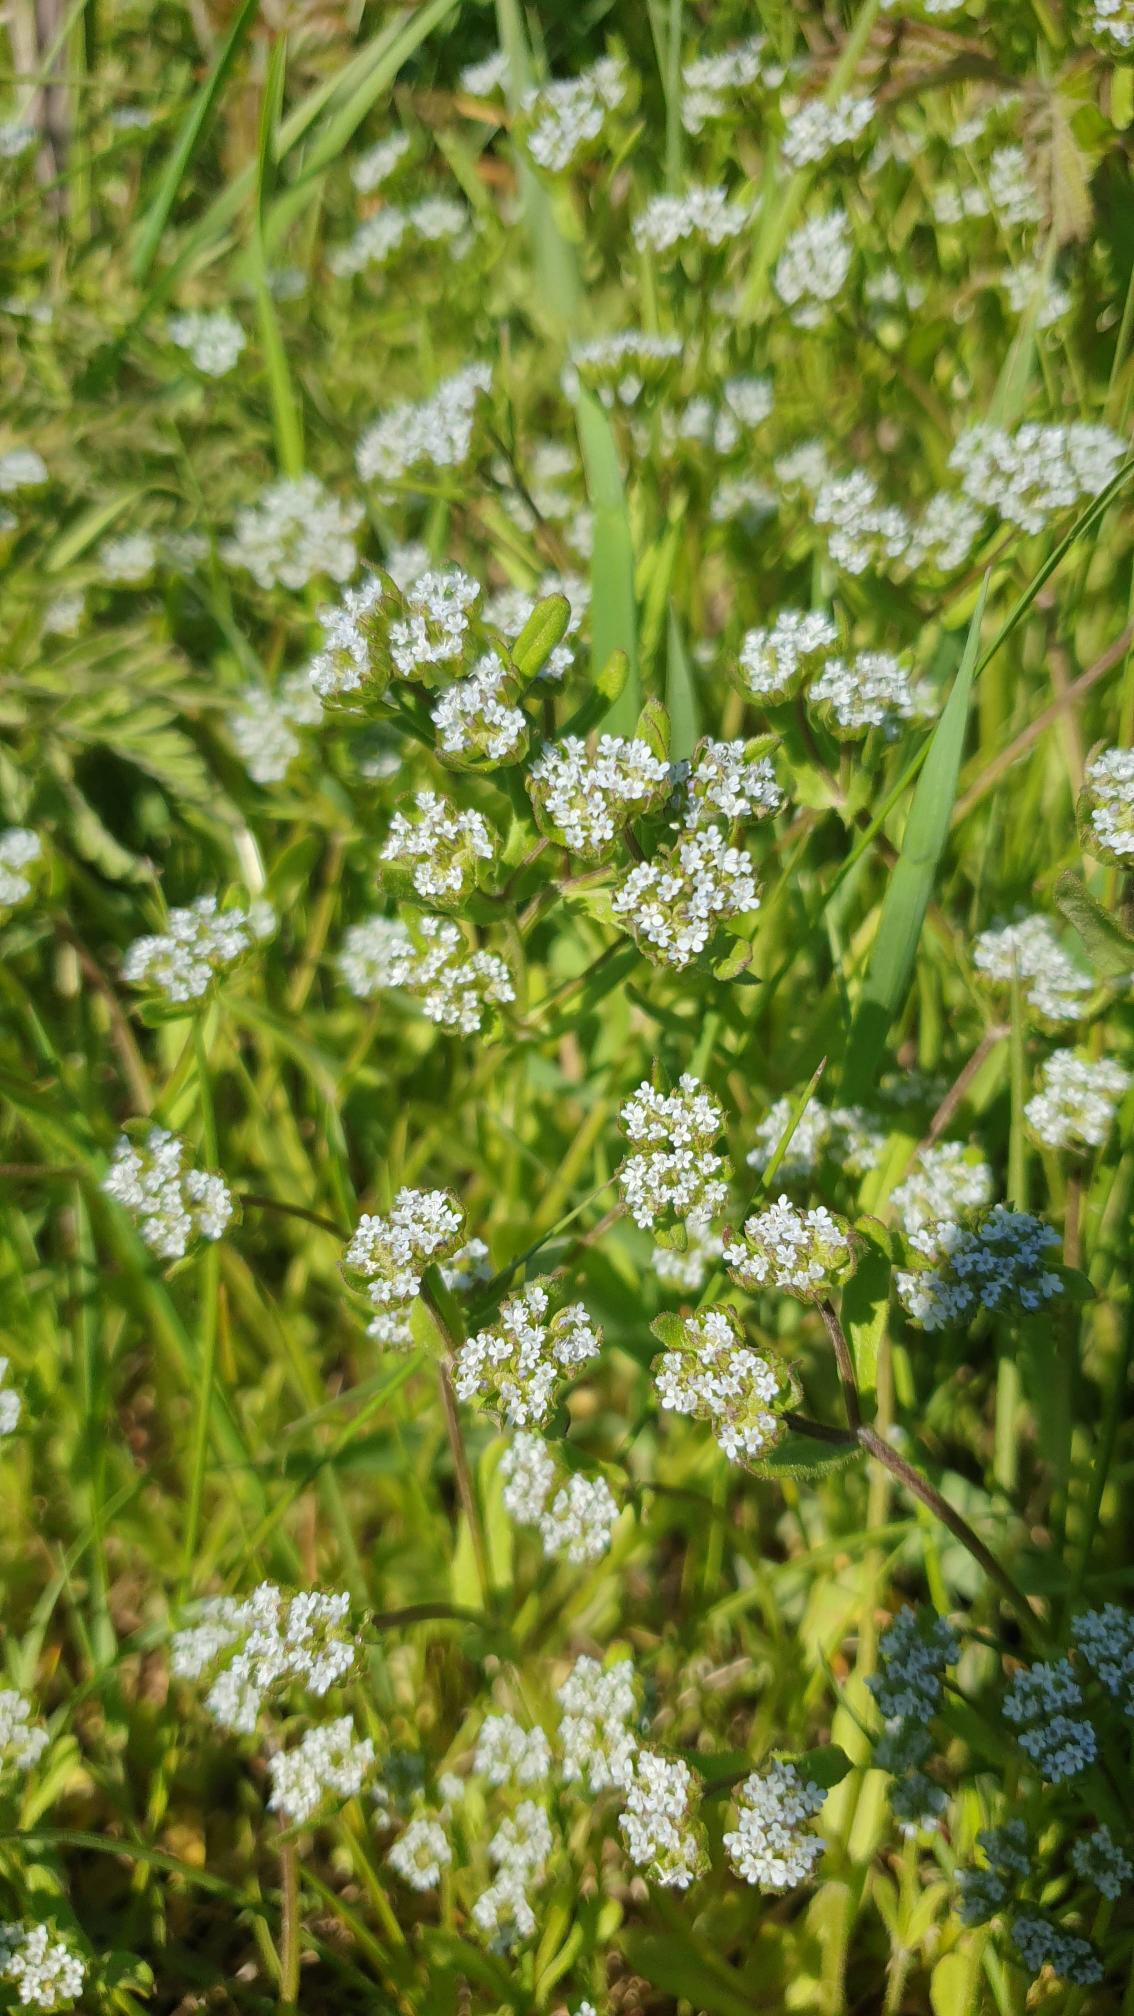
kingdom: Plantae
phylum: Tracheophyta
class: Magnoliopsida
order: Dipsacales
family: Caprifoliaceae
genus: Valerianella
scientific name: Valerianella locusta
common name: Tandfri vårsalat
